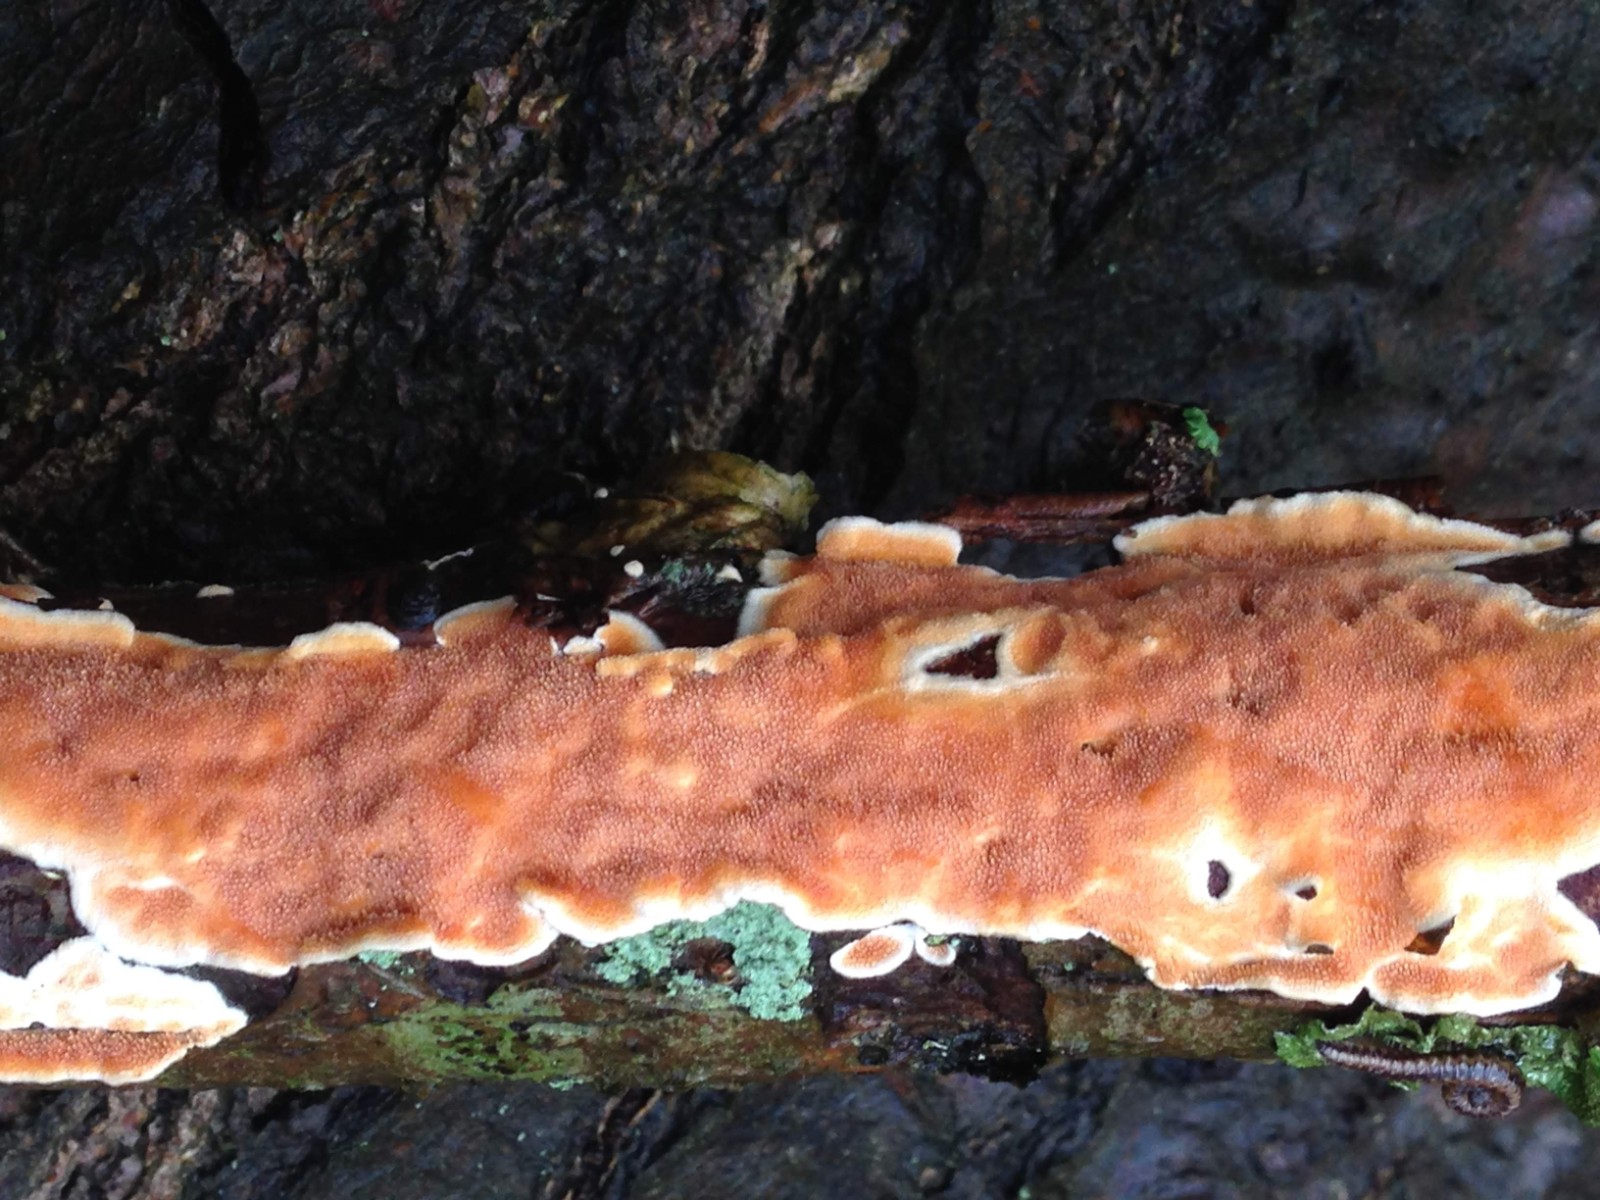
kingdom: Fungi
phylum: Basidiomycota
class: Agaricomycetes
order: Polyporales
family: Steccherinaceae
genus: Steccherinum
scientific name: Steccherinum ochraceum
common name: almindelig skønpig
